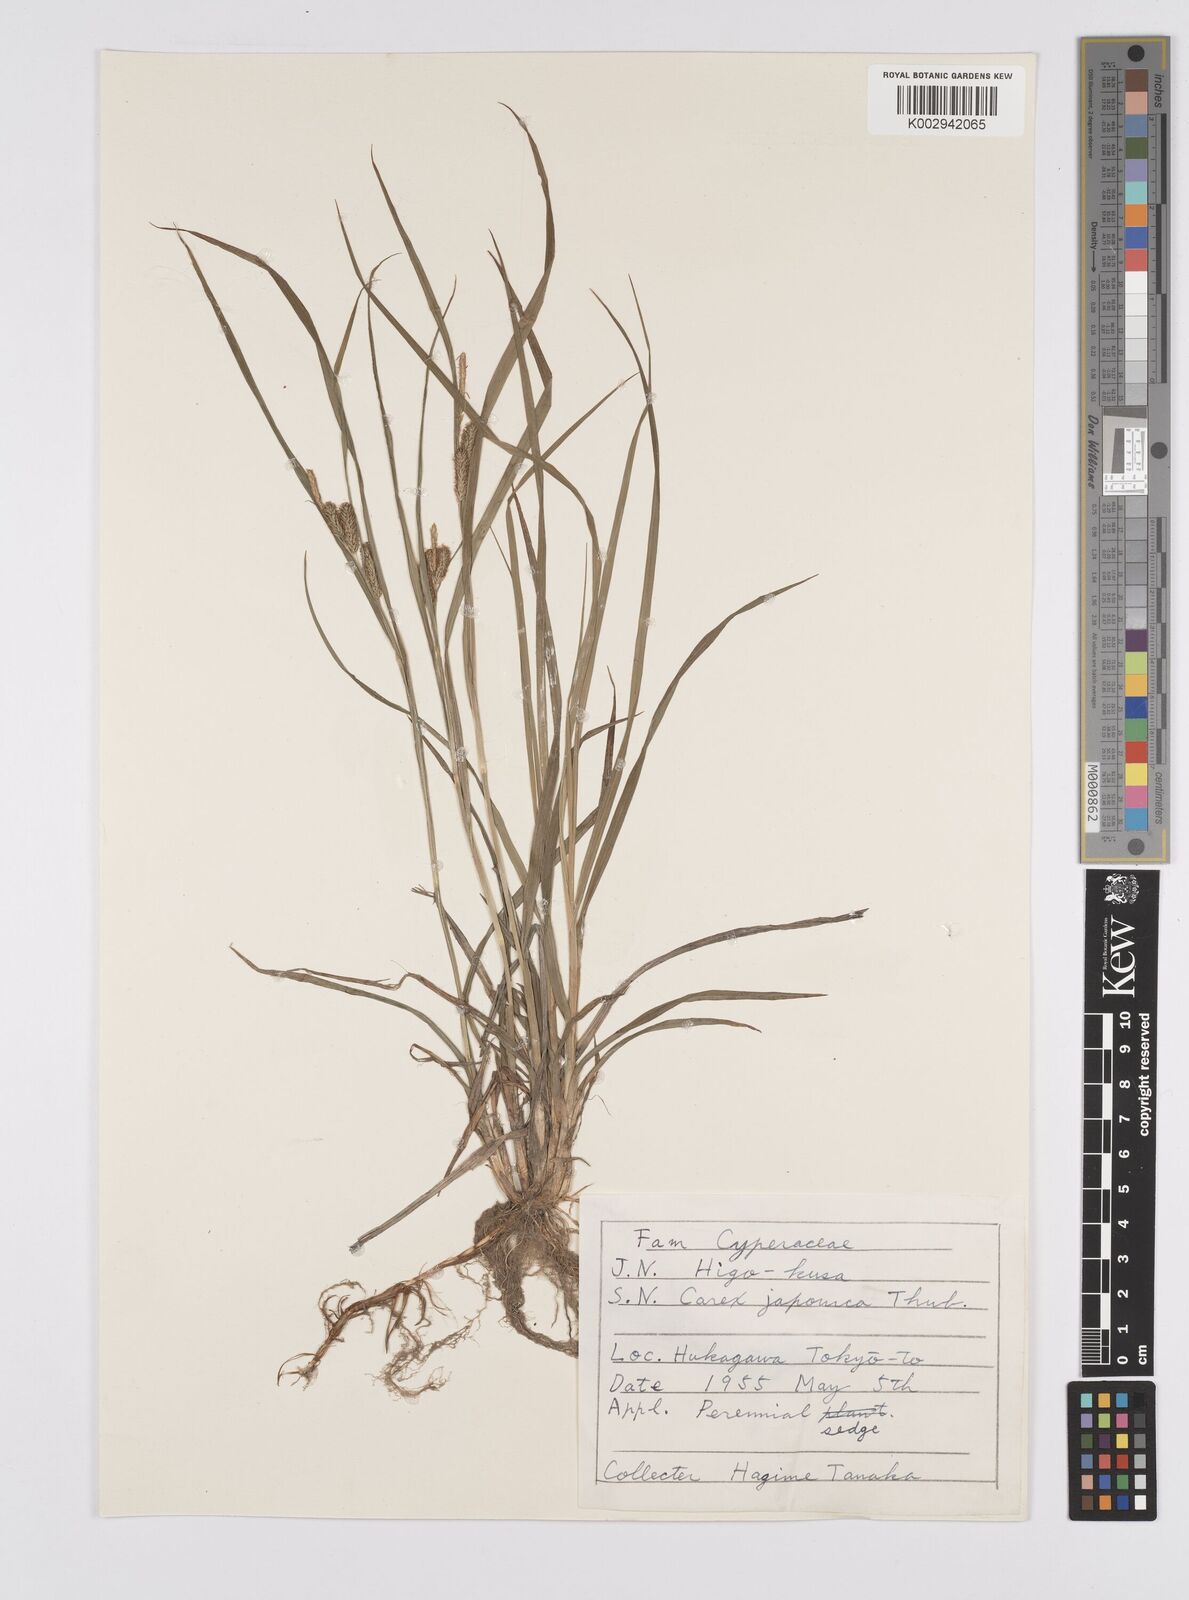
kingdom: Plantae
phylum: Tracheophyta
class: Liliopsida
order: Poales
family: Cyperaceae
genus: Carex
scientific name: Carex japonica
